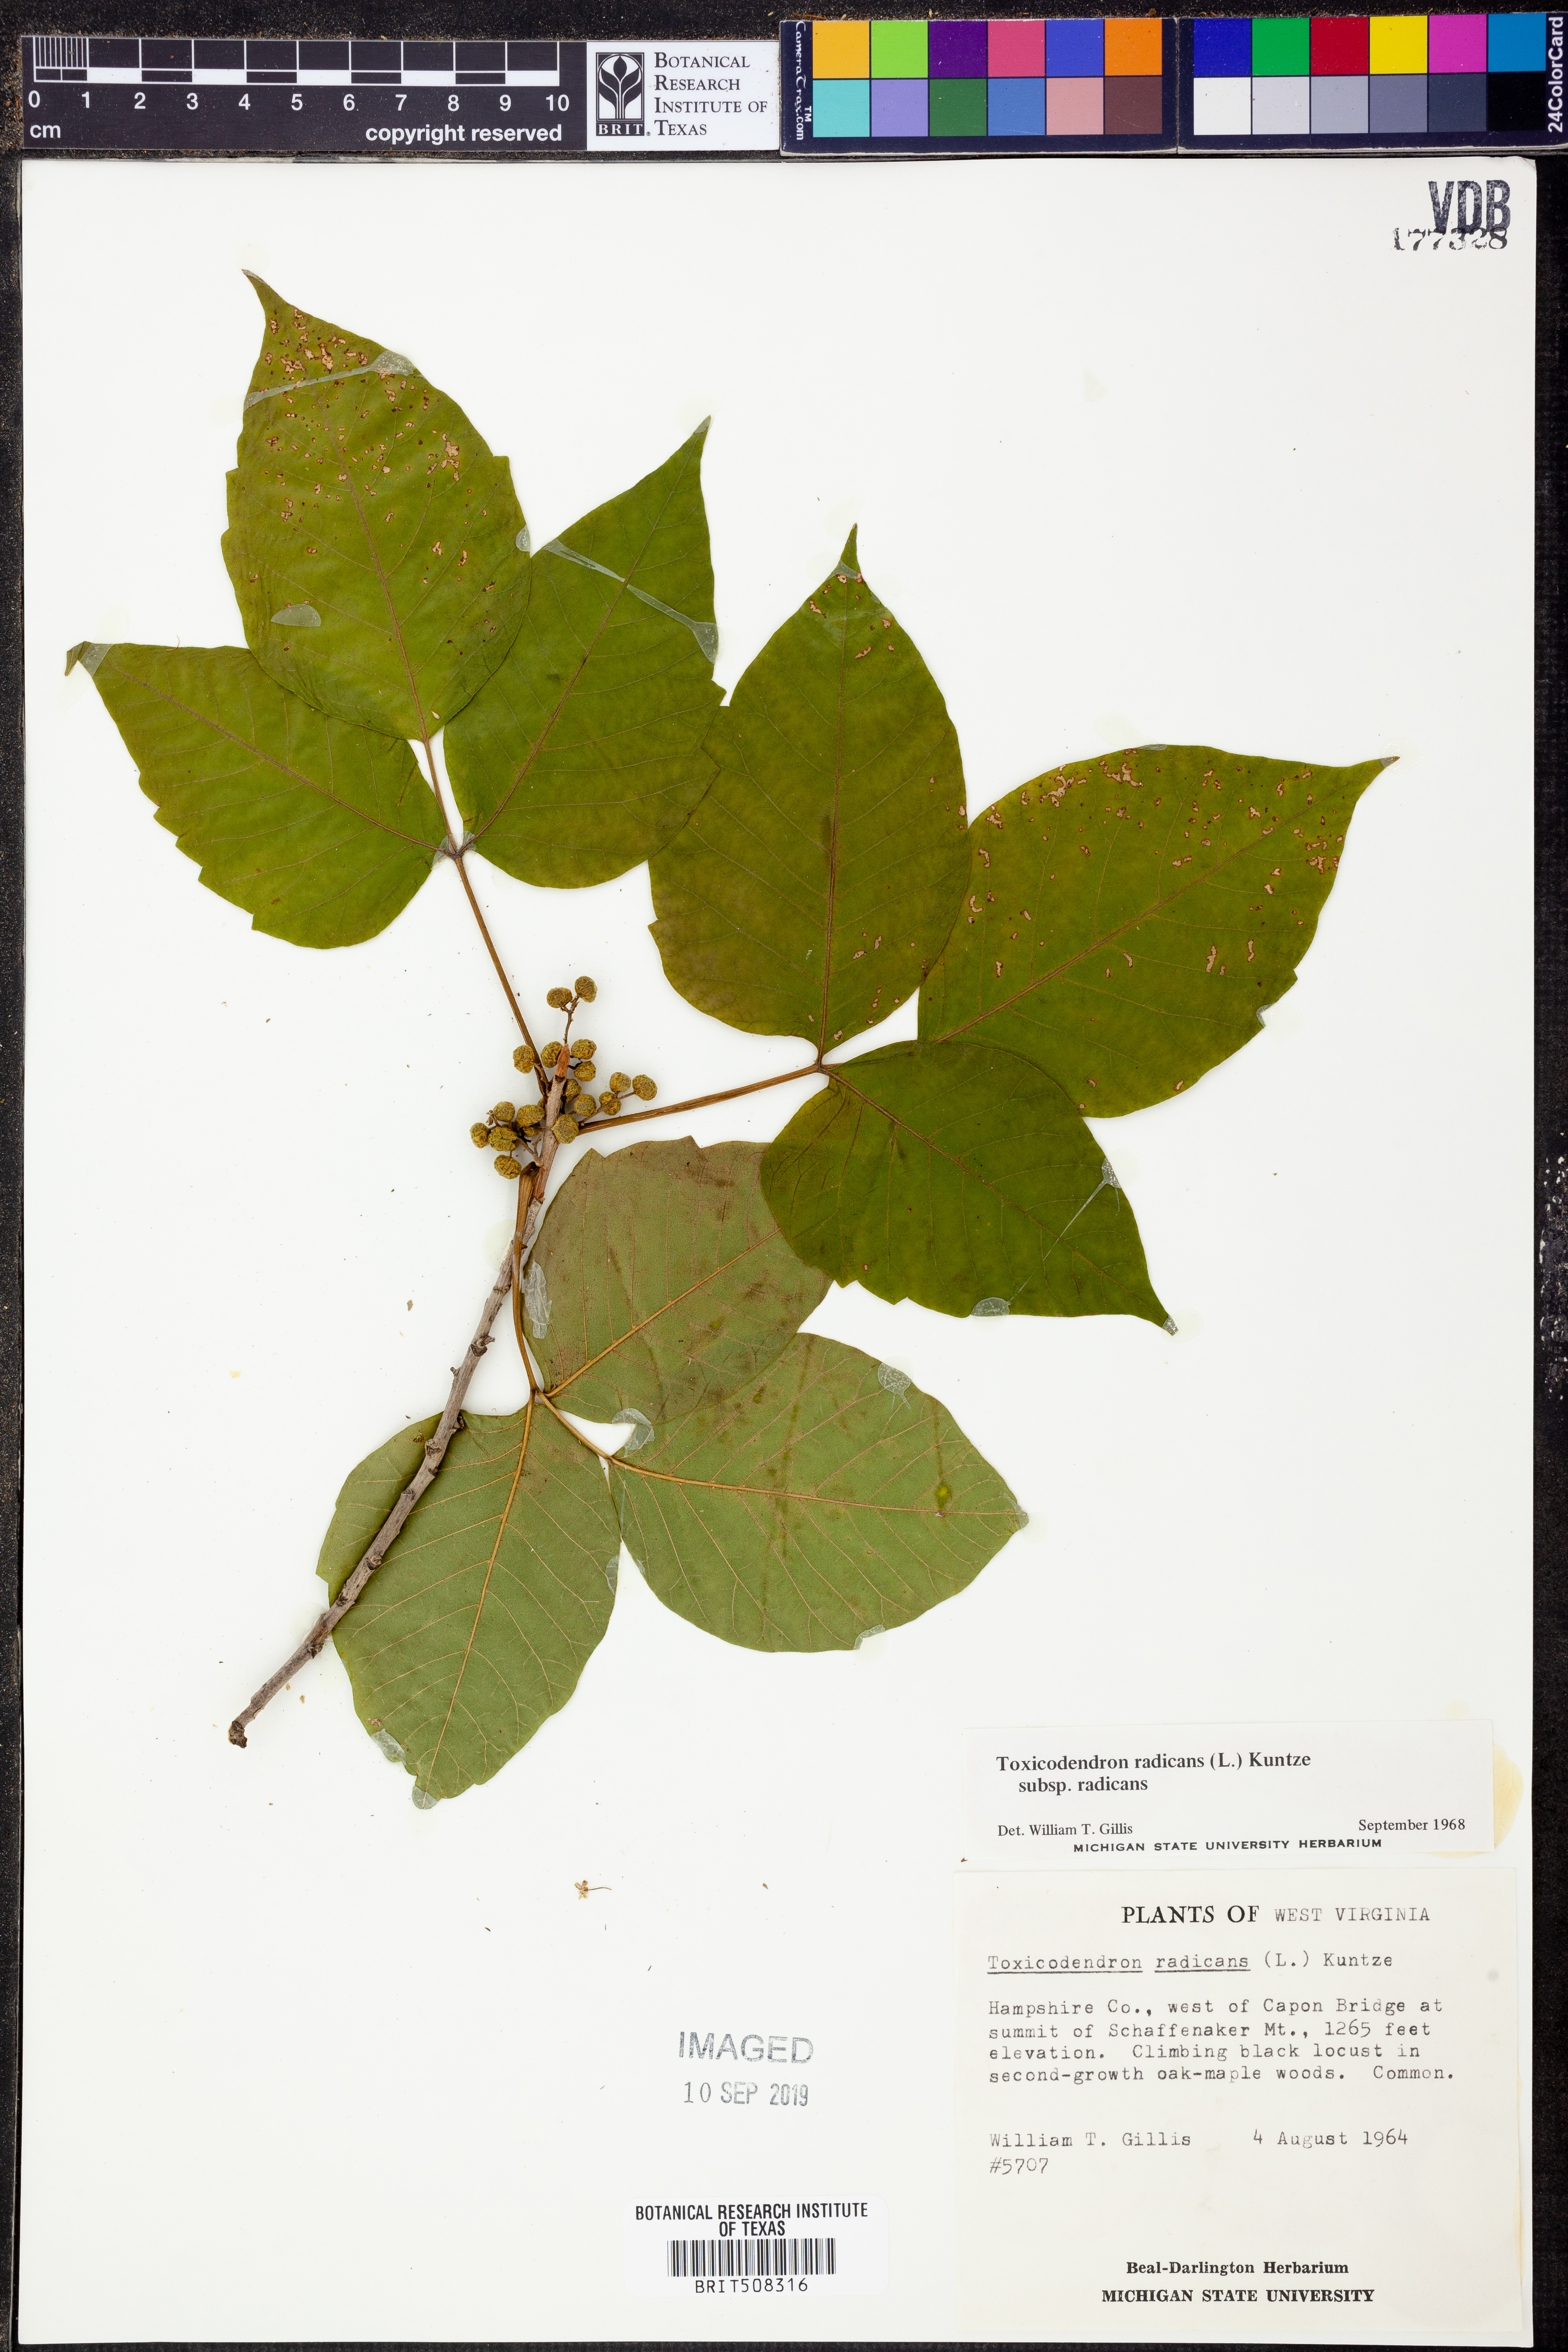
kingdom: Plantae
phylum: Tracheophyta
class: Magnoliopsida
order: Sapindales
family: Anacardiaceae
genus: Toxicodendron
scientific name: Toxicodendron radicans
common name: Poison ivy
